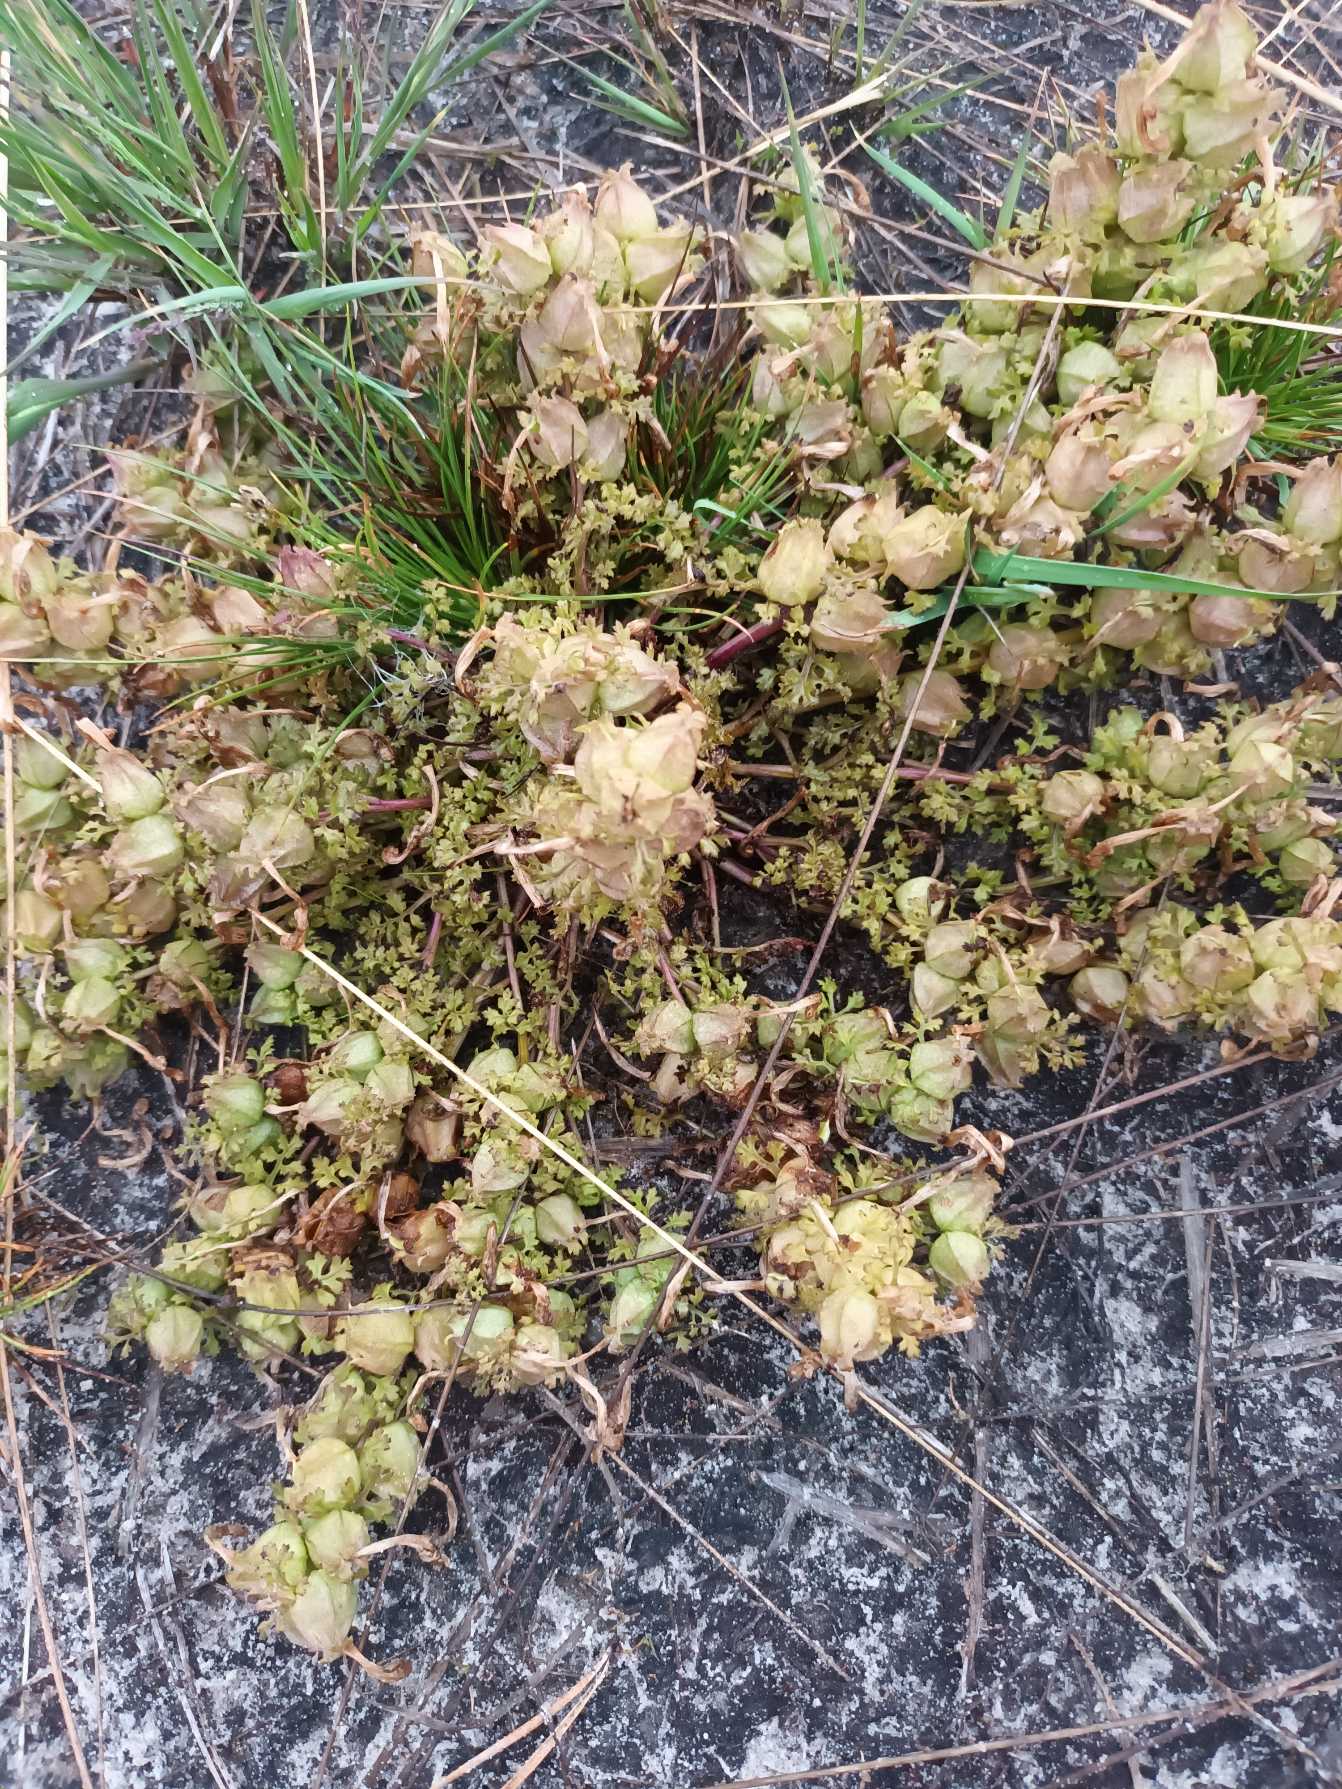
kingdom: Plantae
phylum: Tracheophyta
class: Magnoliopsida
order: Lamiales
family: Orobanchaceae
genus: Pedicularis
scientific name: Pedicularis sylvatica
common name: Mose-troldurt
